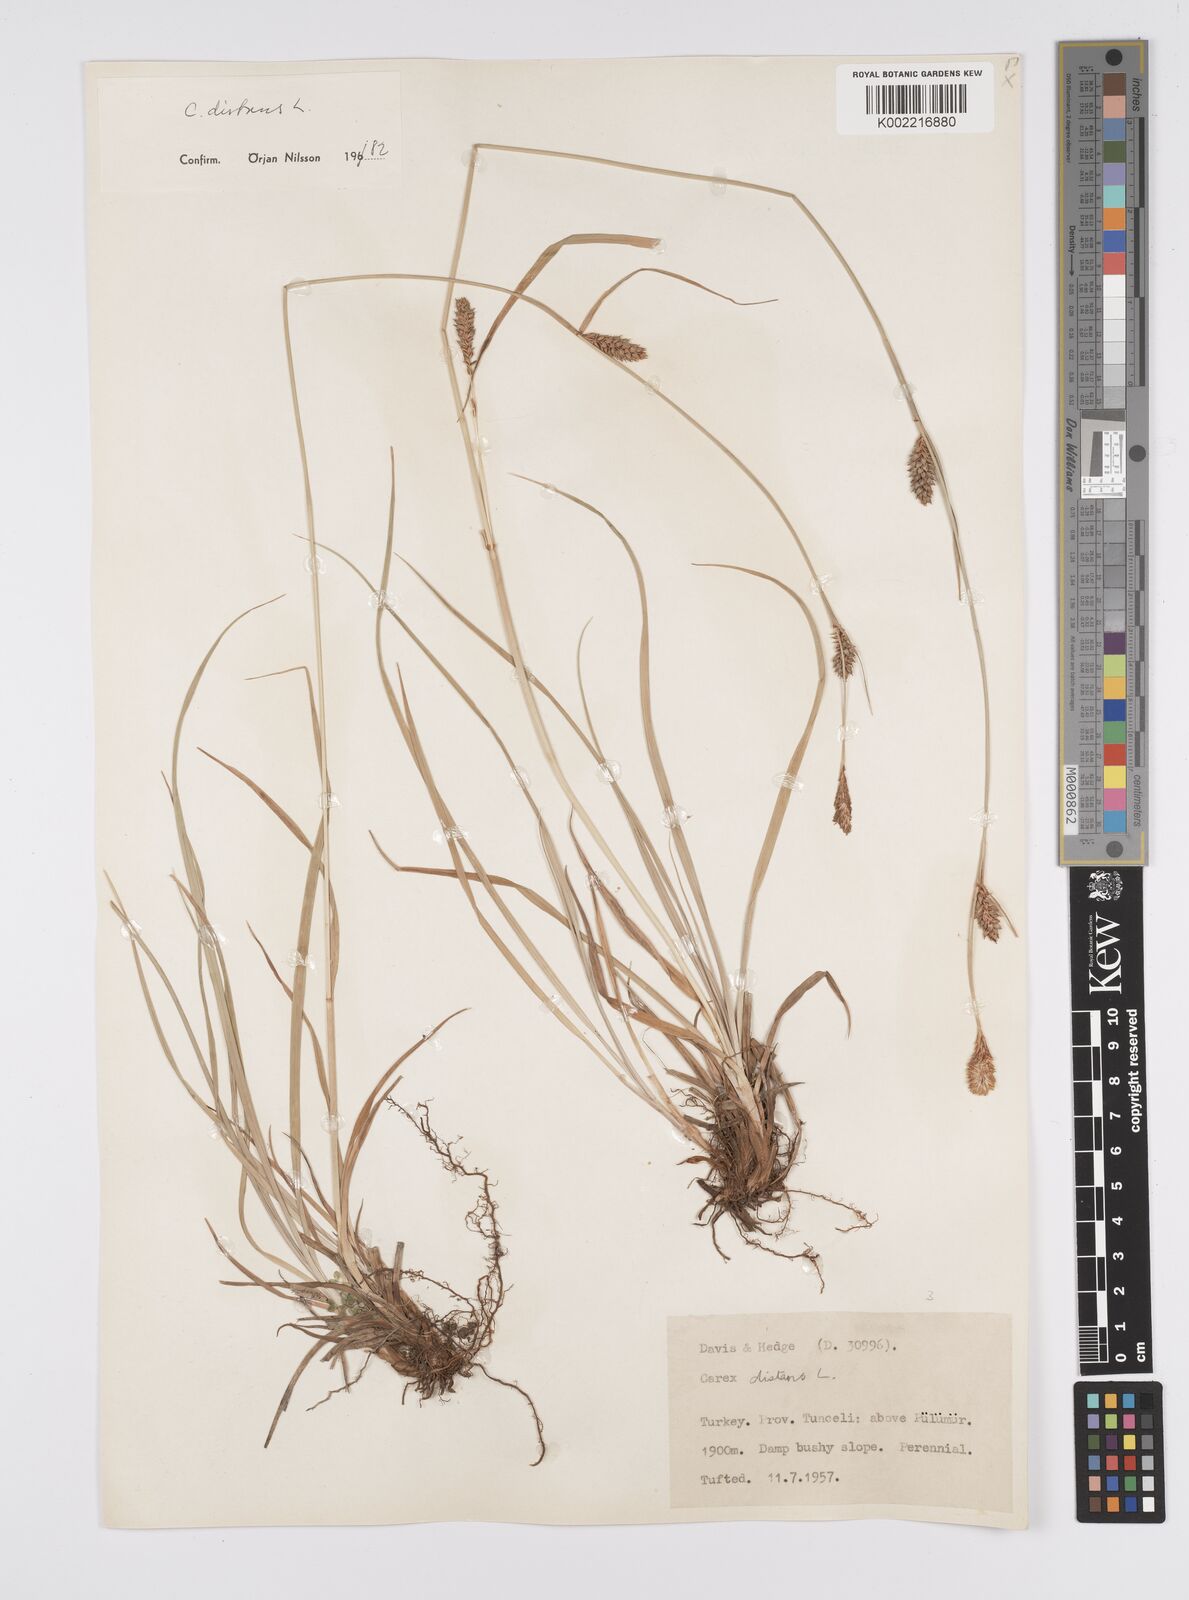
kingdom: Plantae
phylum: Tracheophyta
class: Liliopsida
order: Poales
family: Cyperaceae
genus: Carex
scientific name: Carex distans
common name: Distant sedge
